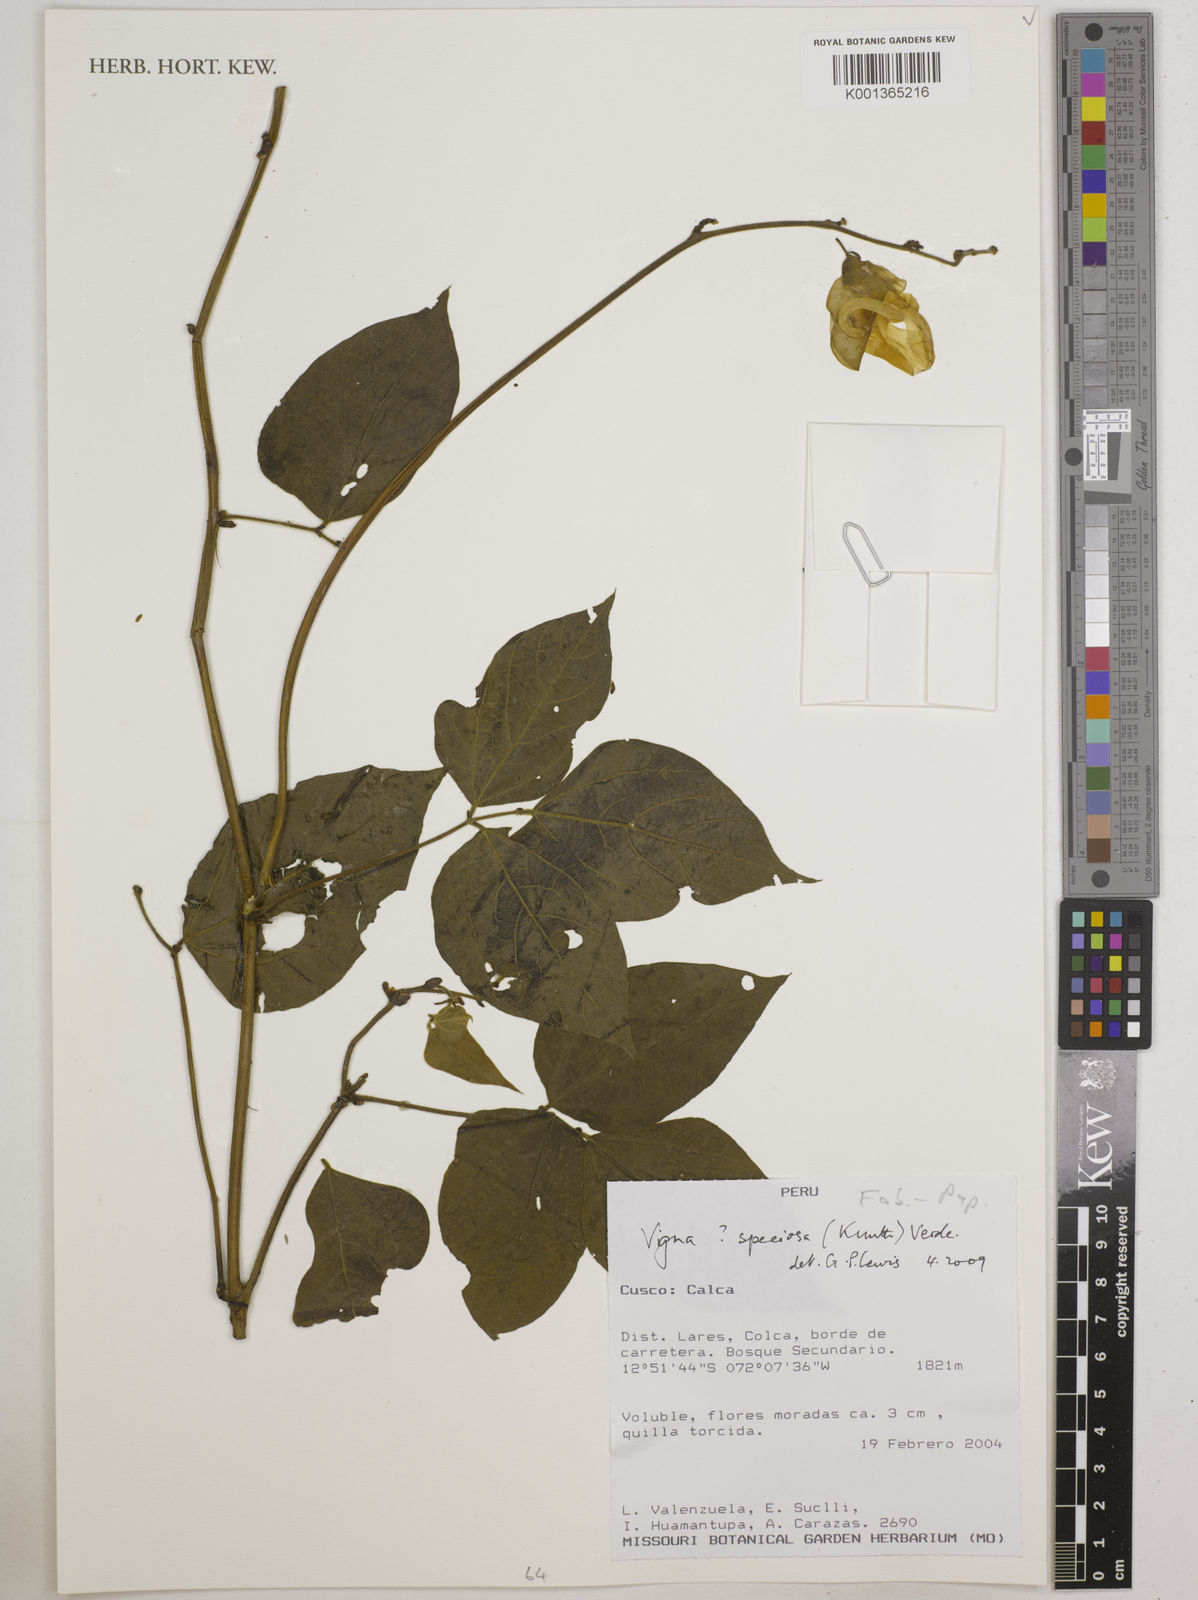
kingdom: Plantae
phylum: Tracheophyta
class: Magnoliopsida
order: Fabales
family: Fabaceae
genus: Sigmoidotropis
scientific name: Sigmoidotropis speciosa
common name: Snail flower
